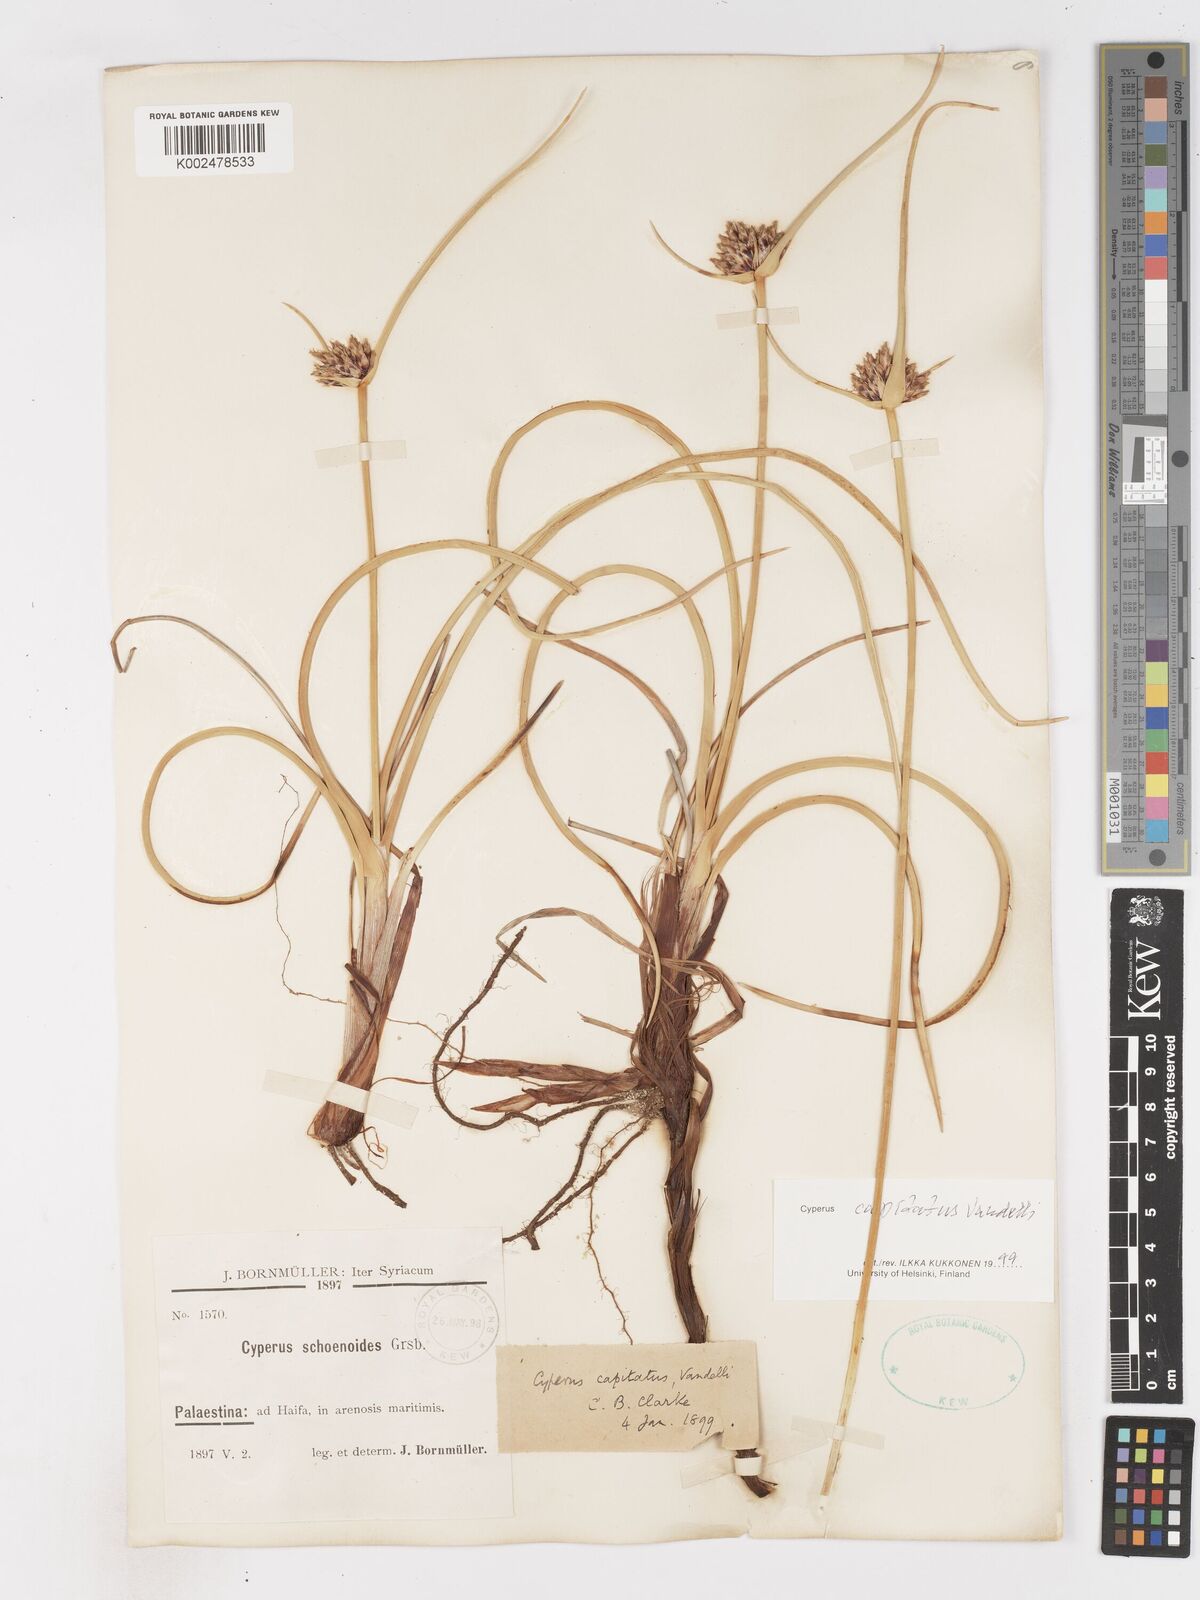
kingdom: Plantae
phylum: Tracheophyta
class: Liliopsida
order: Poales
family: Cyperaceae
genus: Cyperus
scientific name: Cyperus capitatus
